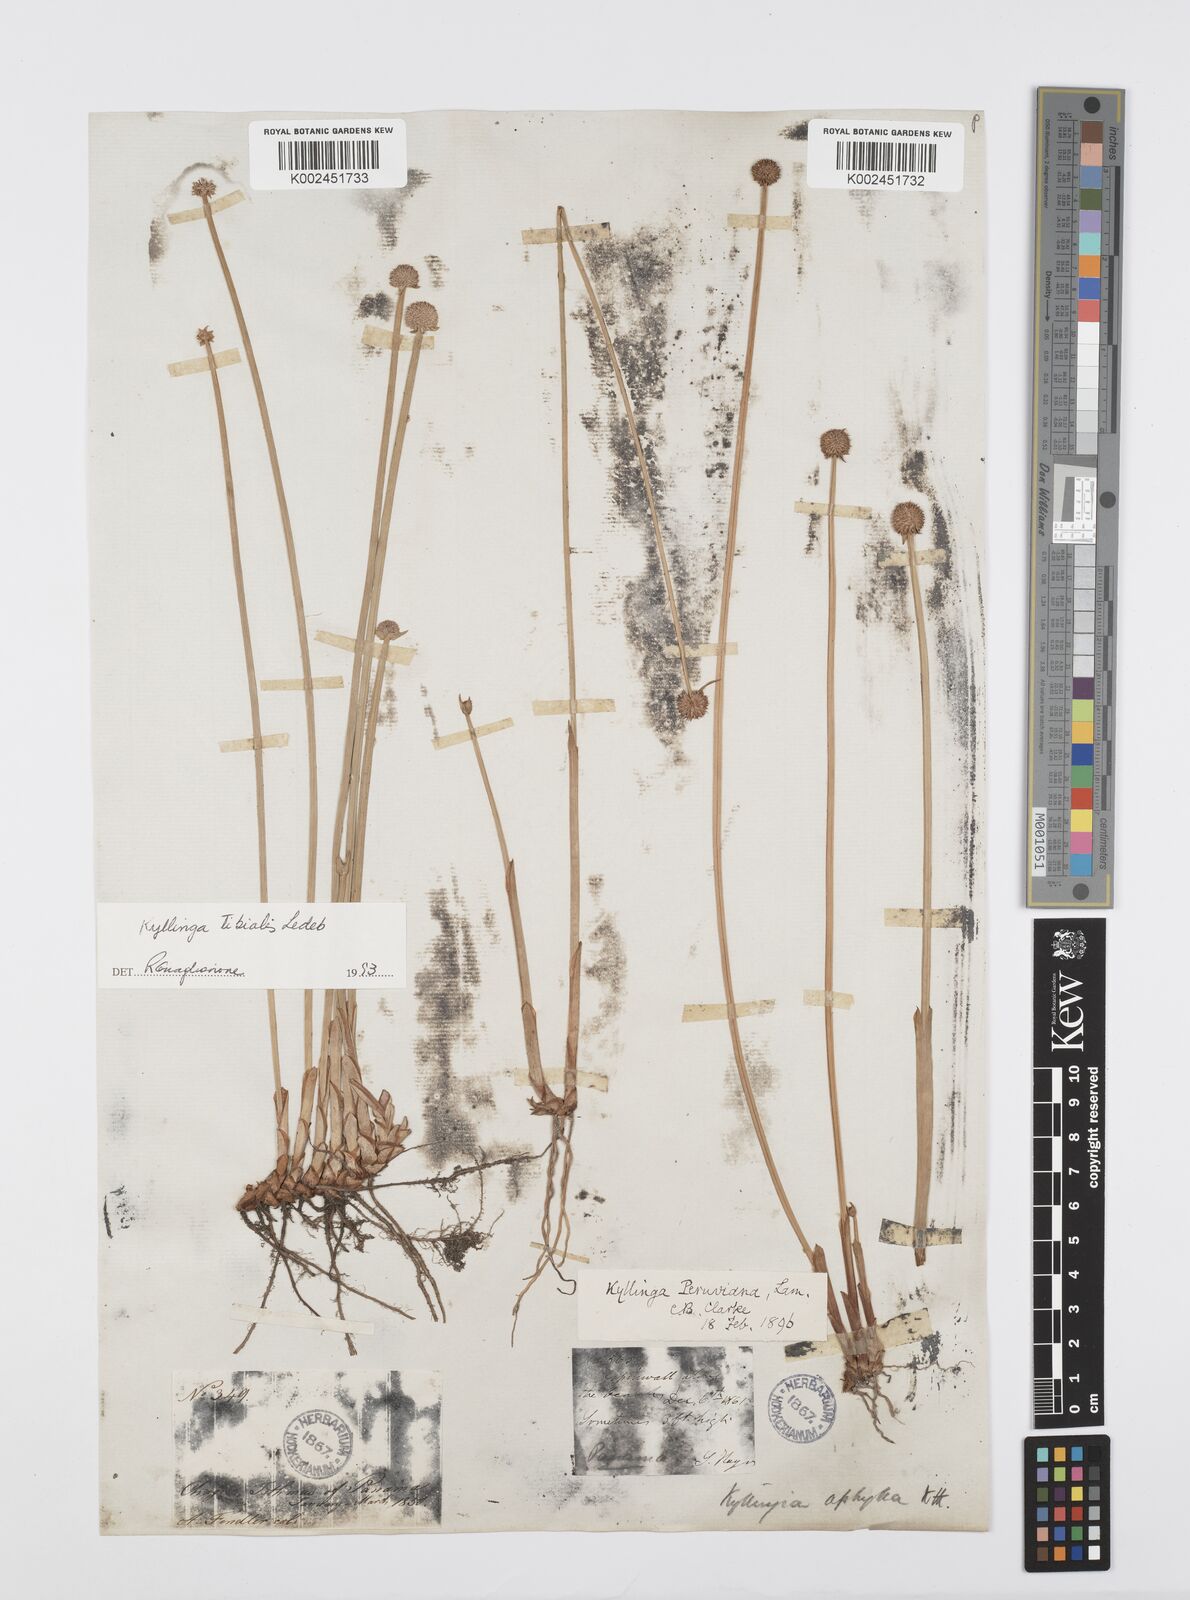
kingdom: Plantae
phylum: Tracheophyta
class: Liliopsida
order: Poales
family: Cyperaceae
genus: Cyperus
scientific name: Cyperus obtusatus
